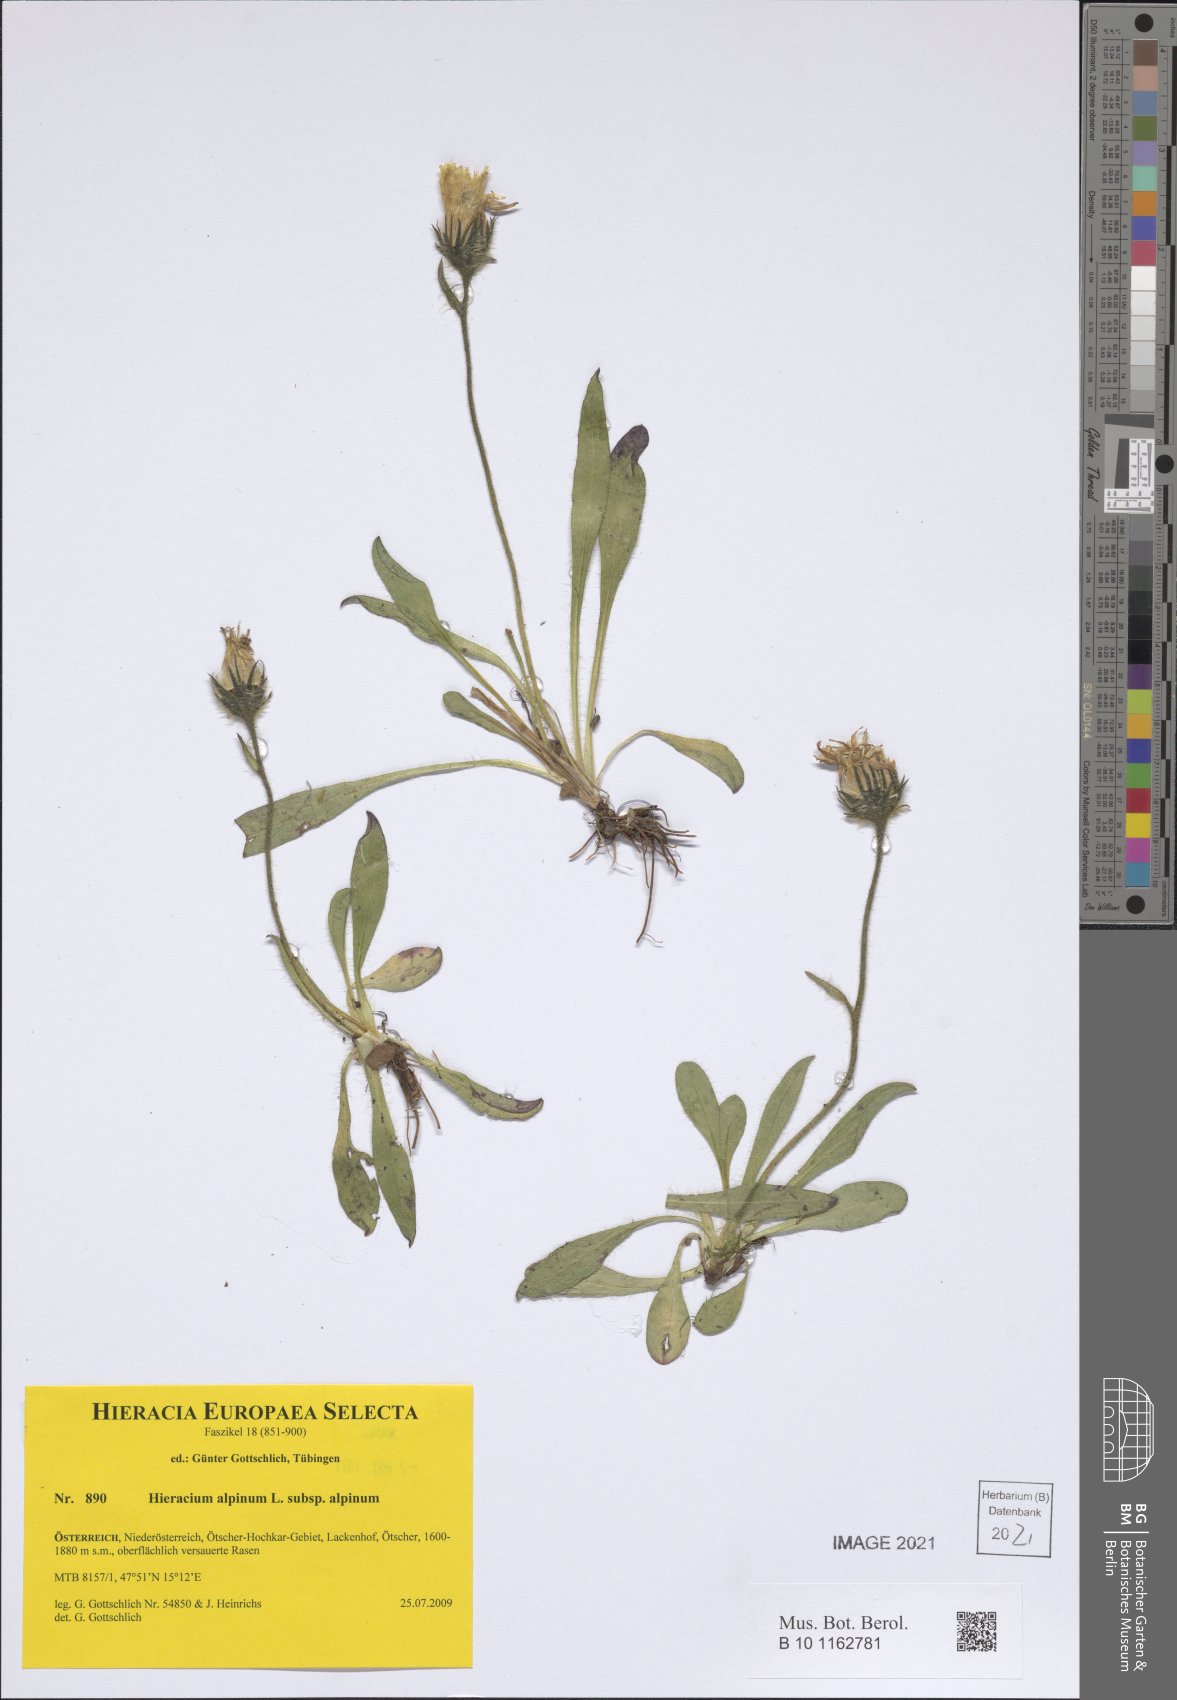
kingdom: Plantae
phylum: Tracheophyta
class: Magnoliopsida
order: Asterales
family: Asteraceae
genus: Hieracium
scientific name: Hieracium alpinum
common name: Alpine hawkweed
